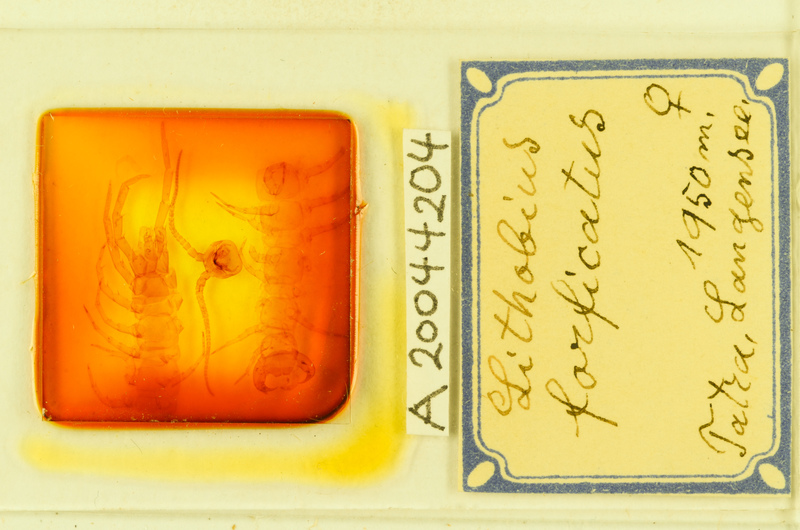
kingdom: Animalia
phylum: Arthropoda
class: Chilopoda
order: Lithobiomorpha
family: Lithobiidae
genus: Lithobius
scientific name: Lithobius forficatus
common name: Centipede
